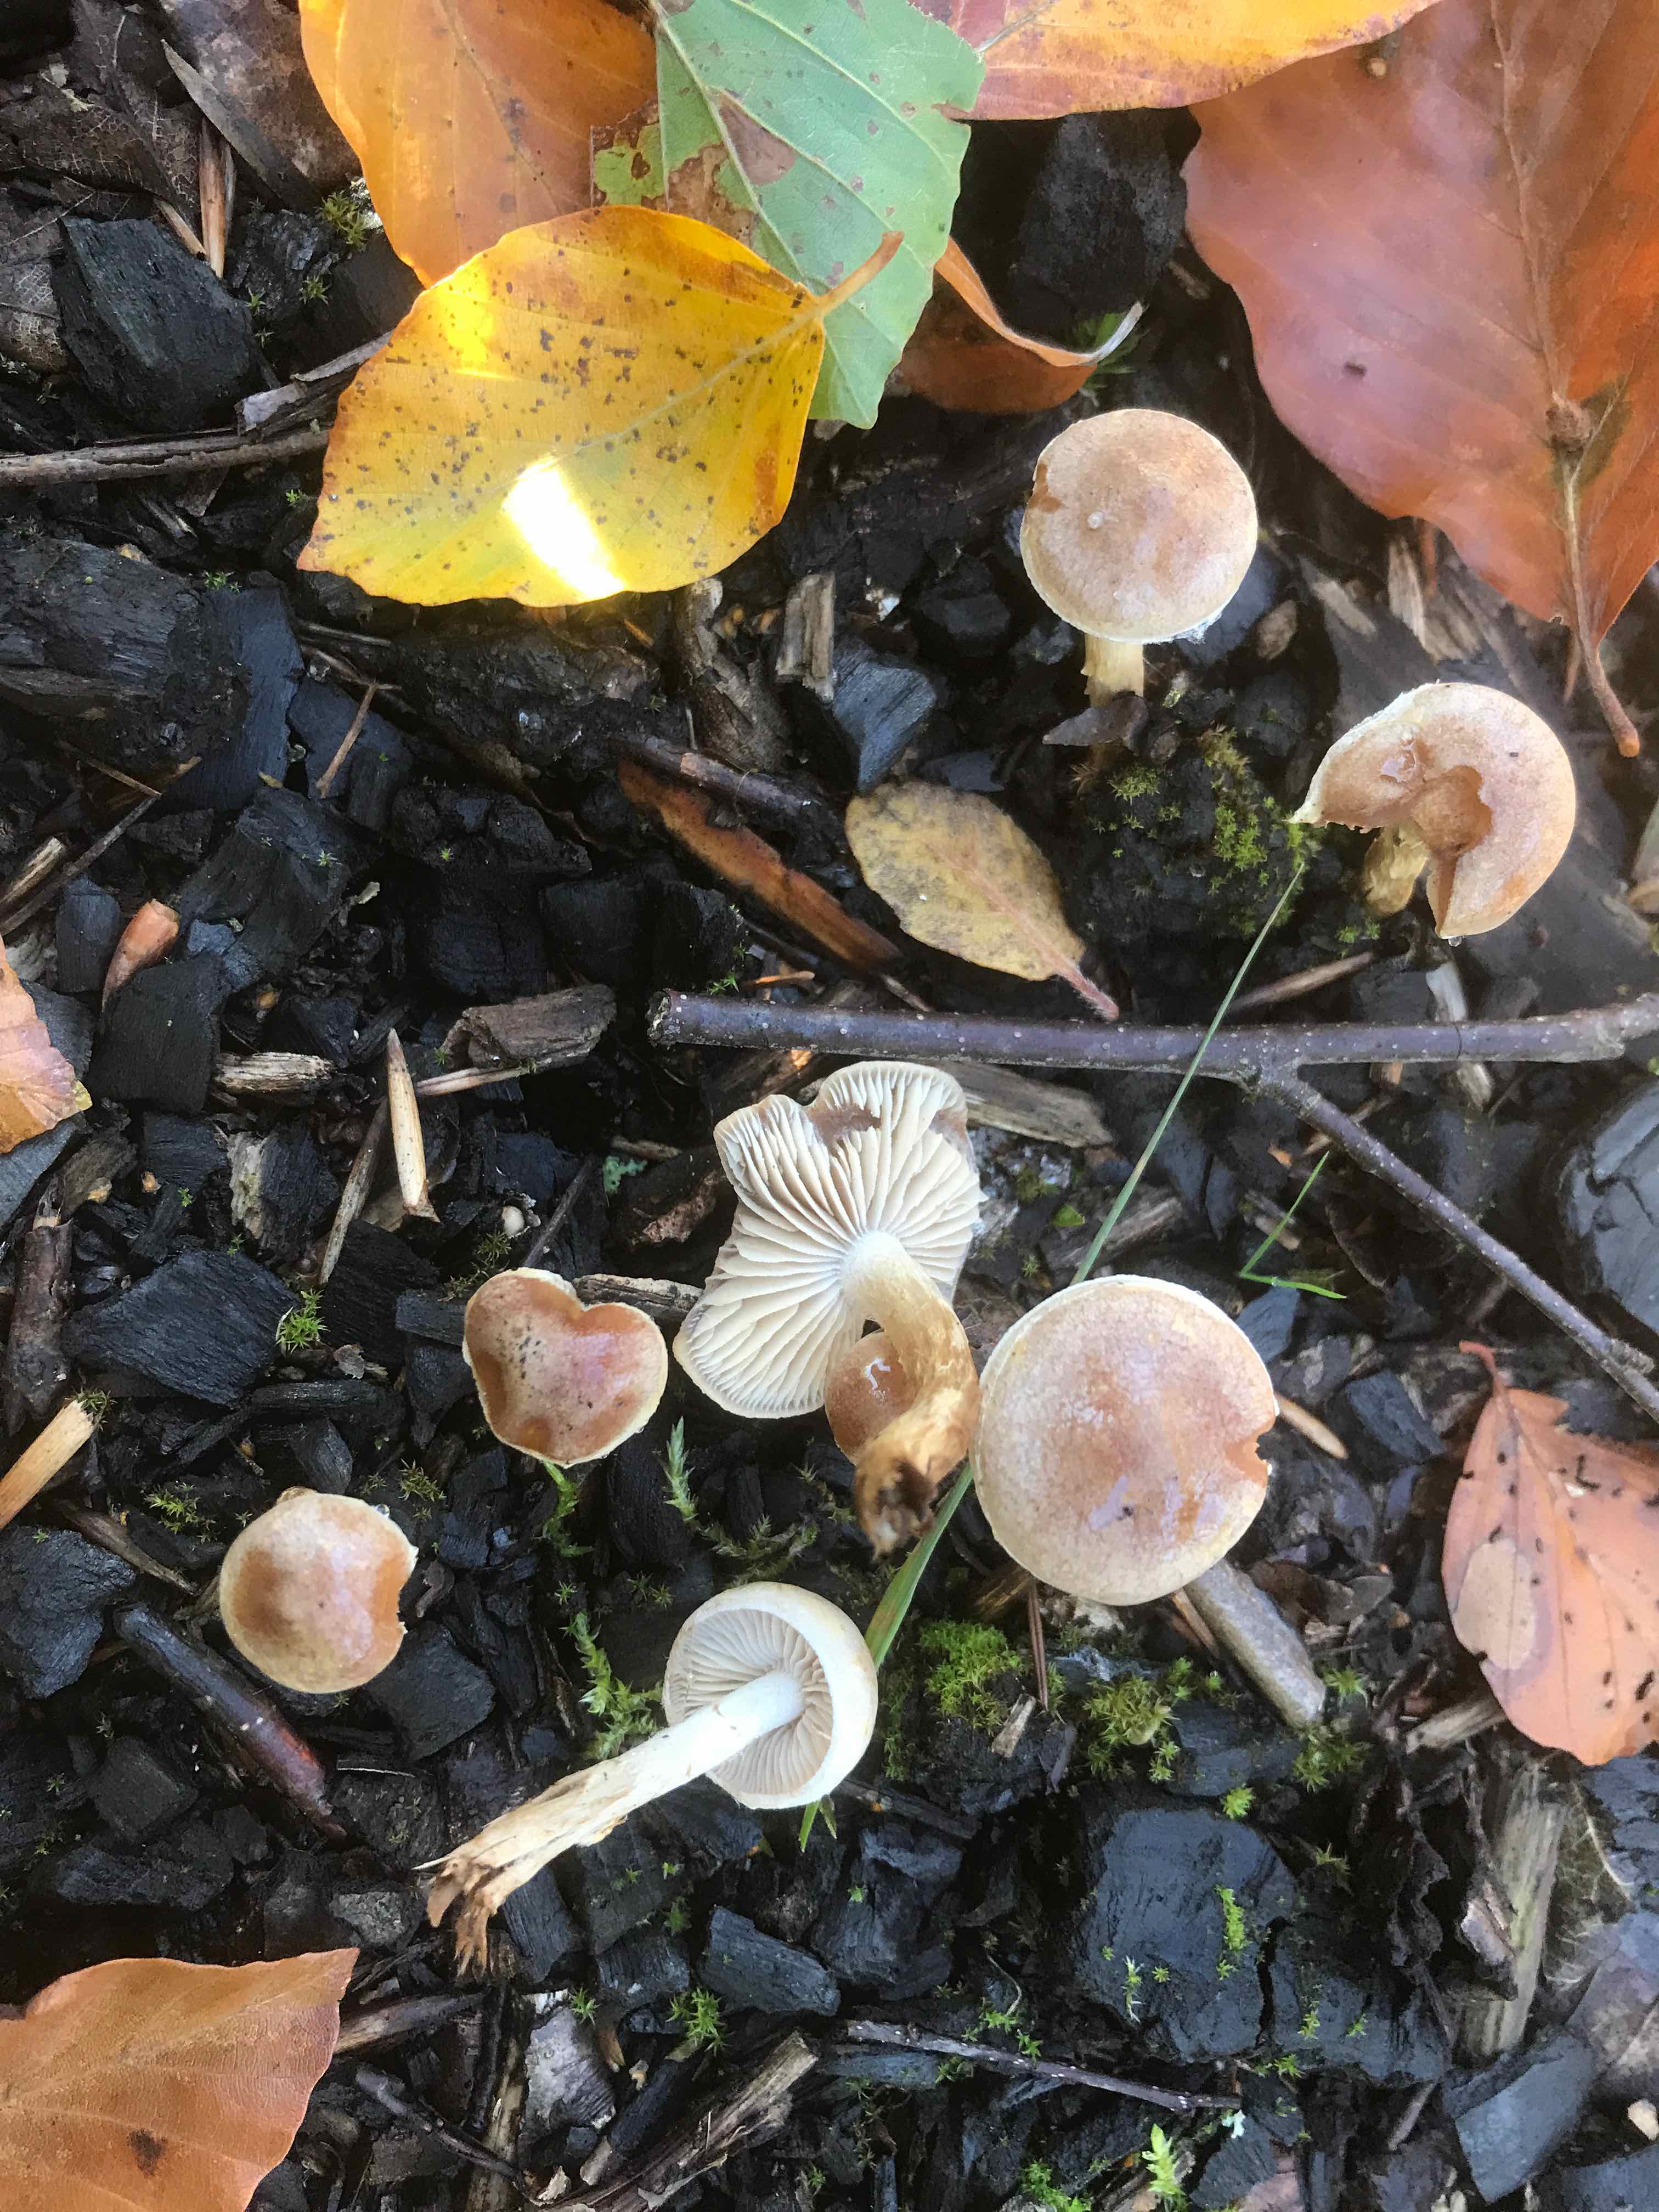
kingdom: Fungi
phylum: Basidiomycota
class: Agaricomycetes
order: Agaricales
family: Hymenogastraceae
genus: Hebeloma
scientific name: Hebeloma
